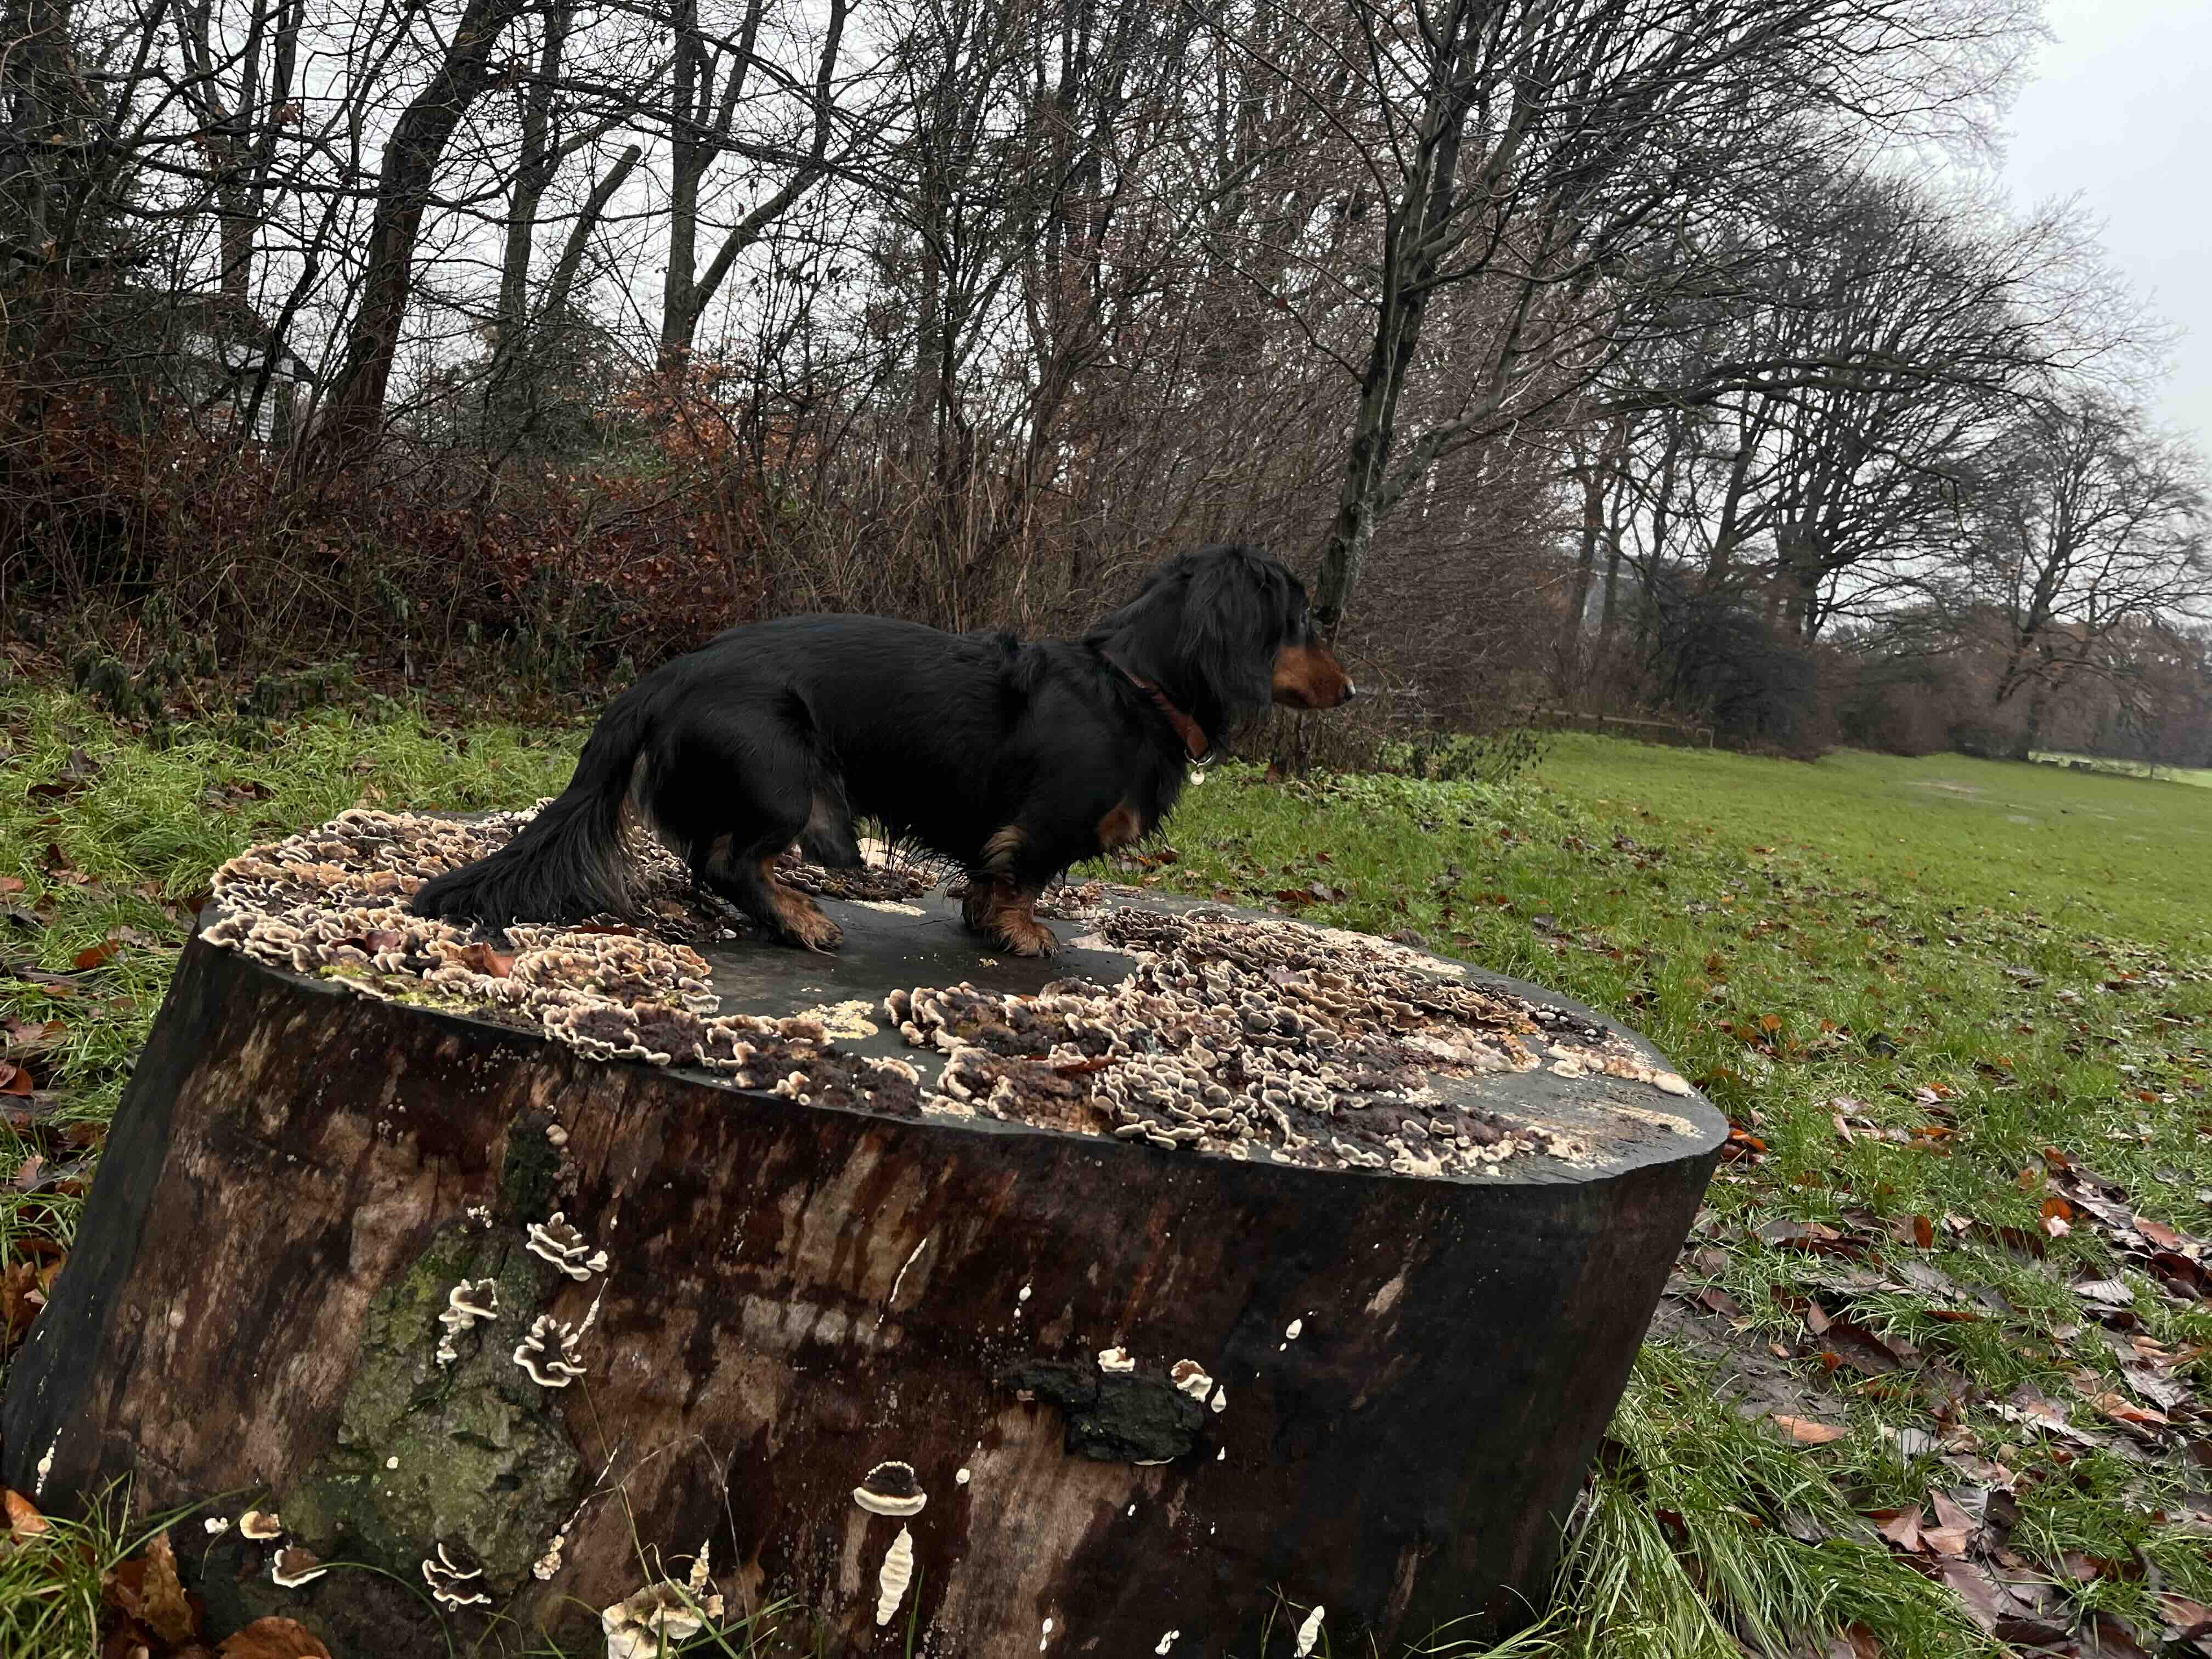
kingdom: Fungi
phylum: Basidiomycota
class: Agaricomycetes
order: Polyporales
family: Polyporaceae
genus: Trametes
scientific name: Trametes versicolor
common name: broget læderporesvamp
